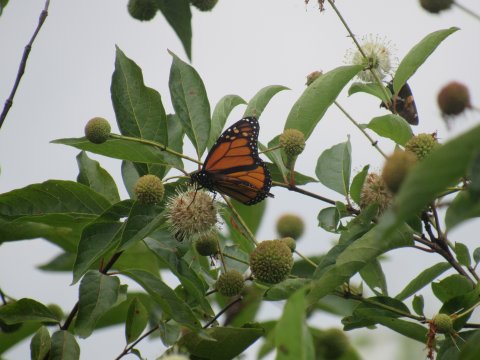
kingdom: Animalia
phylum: Arthropoda
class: Insecta
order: Lepidoptera
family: Nymphalidae
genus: Danaus
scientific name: Danaus plexippus
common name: Monarch
